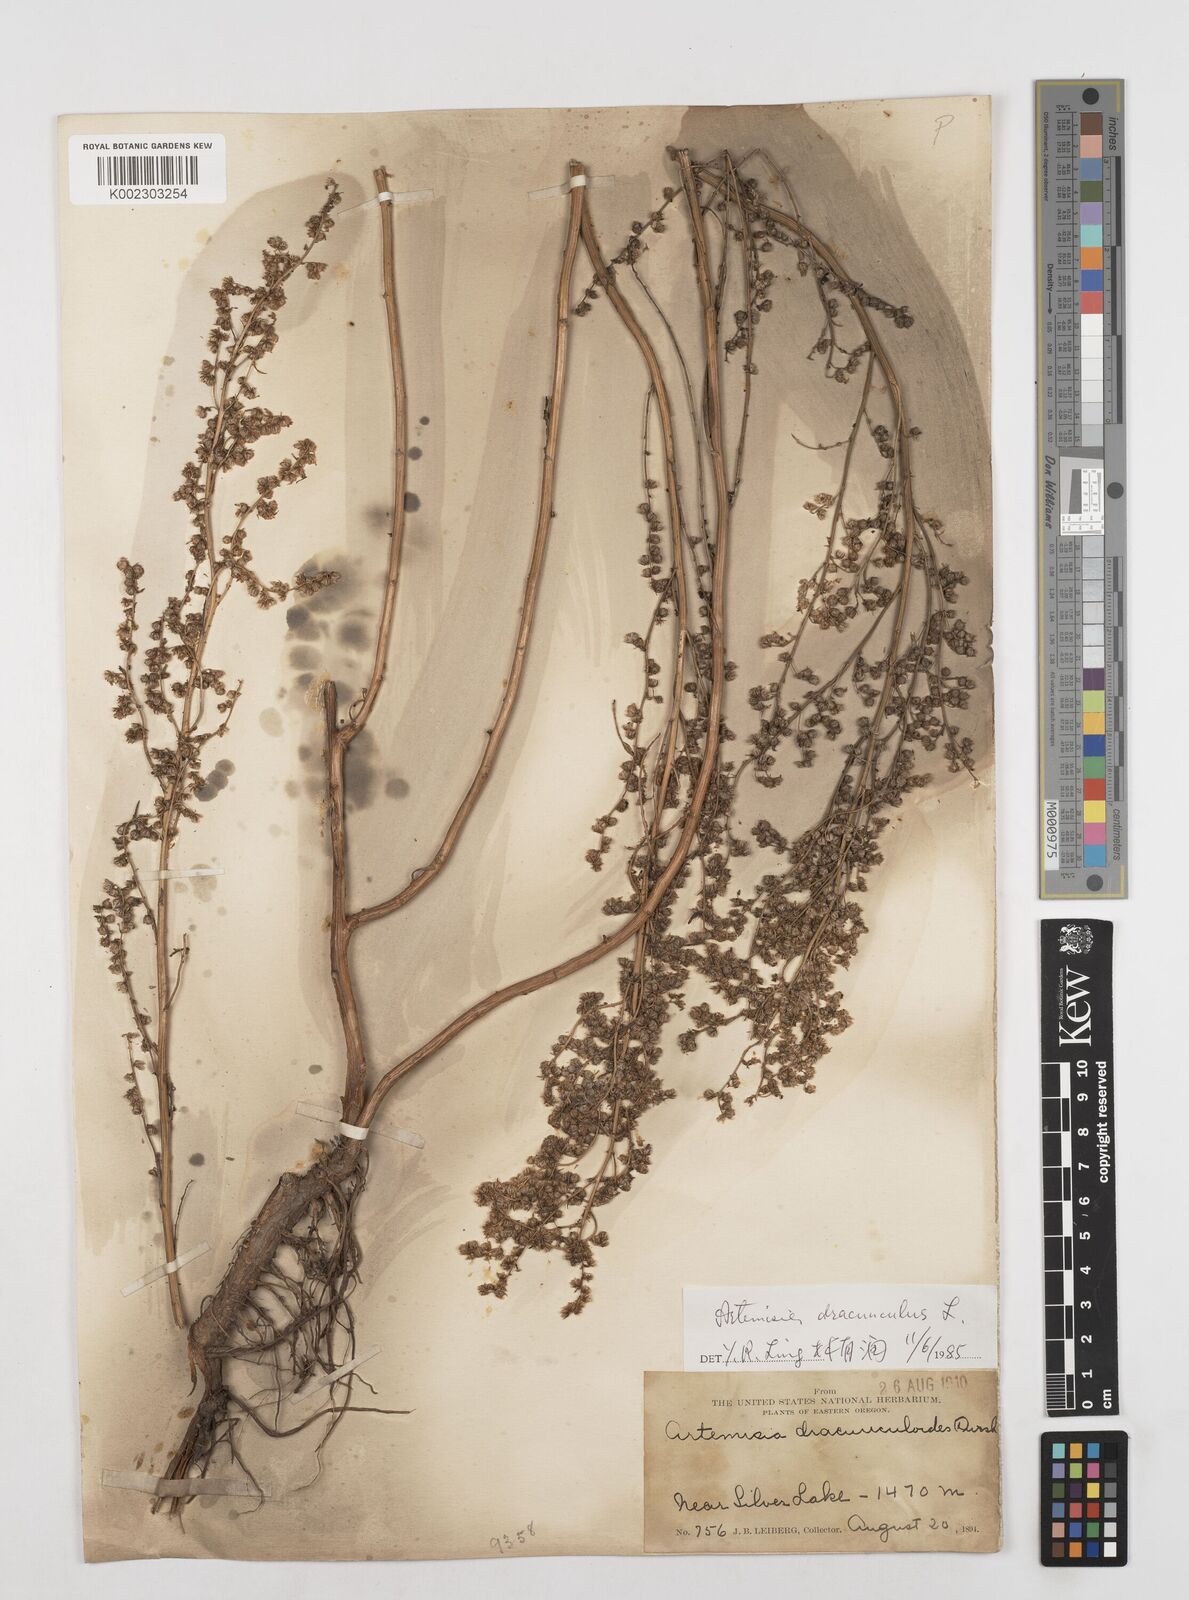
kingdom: Plantae
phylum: Tracheophyta
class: Magnoliopsida
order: Asterales
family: Asteraceae
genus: Artemisia
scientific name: Artemisia dracunculus
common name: Tarragon
